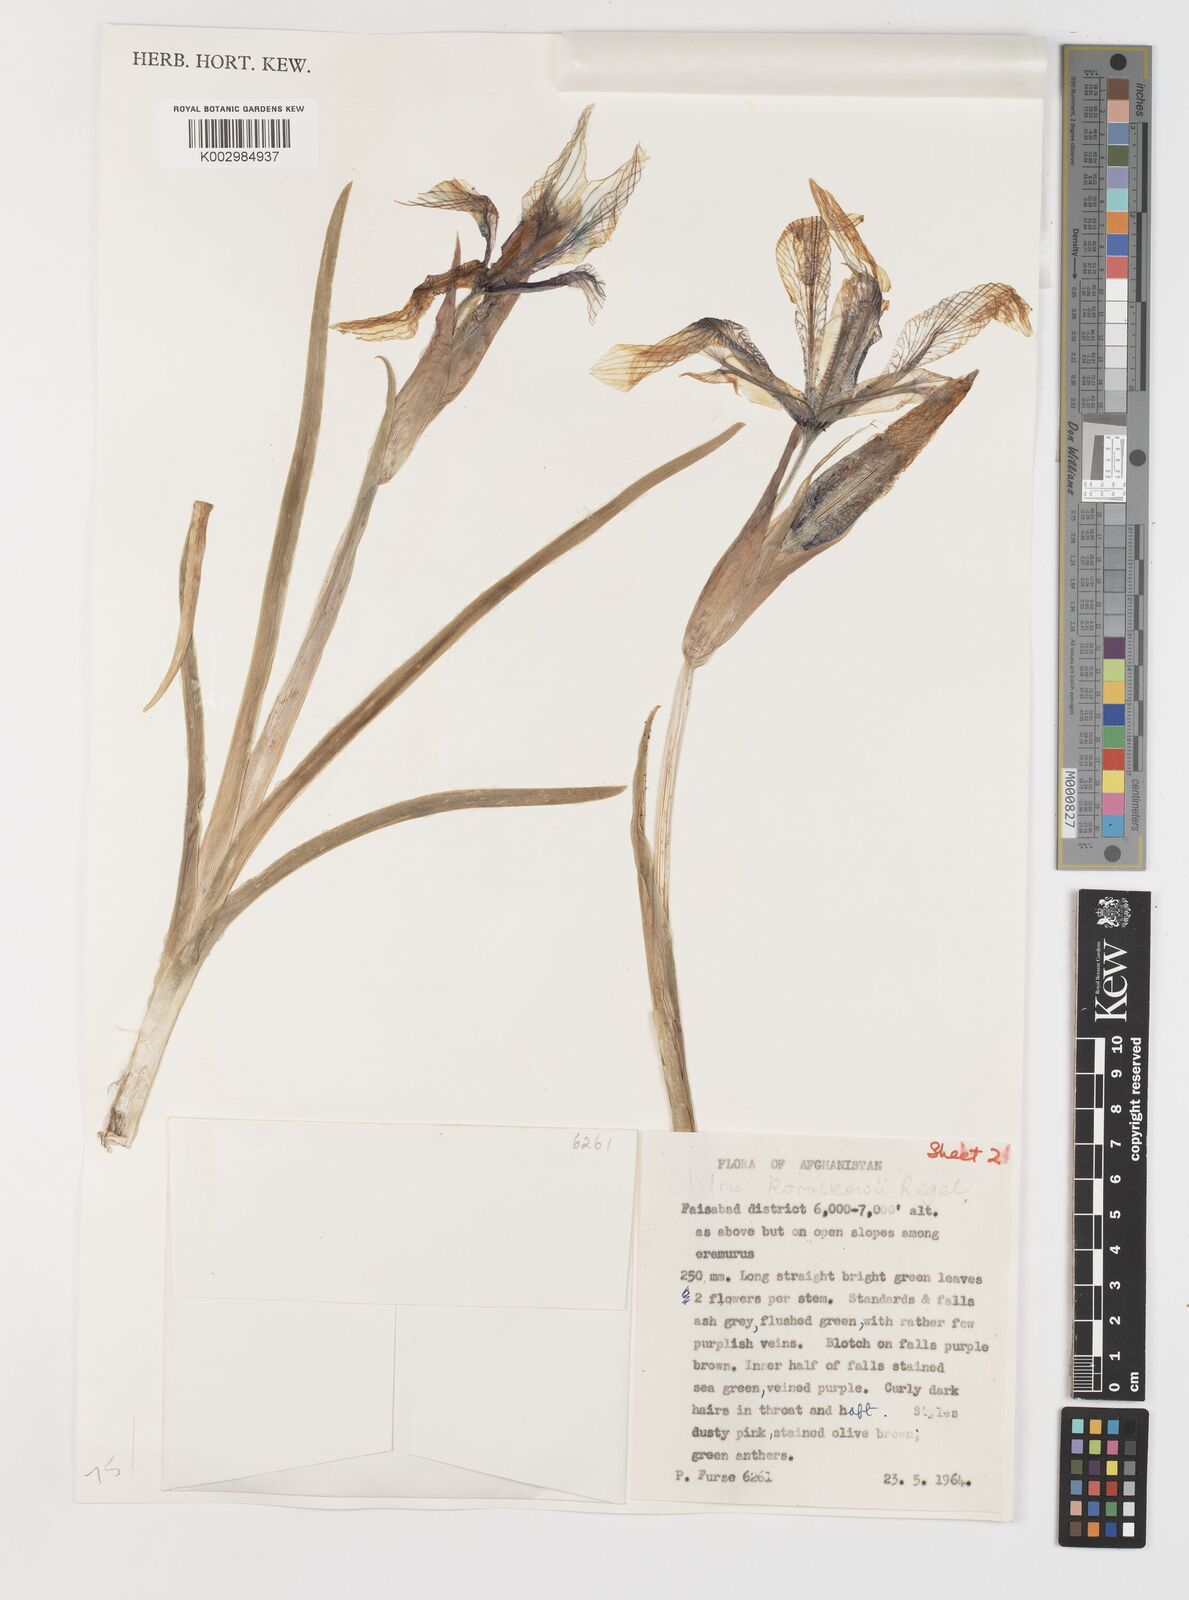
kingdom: Plantae
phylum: Tracheophyta
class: Liliopsida
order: Asparagales
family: Iridaceae
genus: Iris
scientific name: Iris korolkowii
